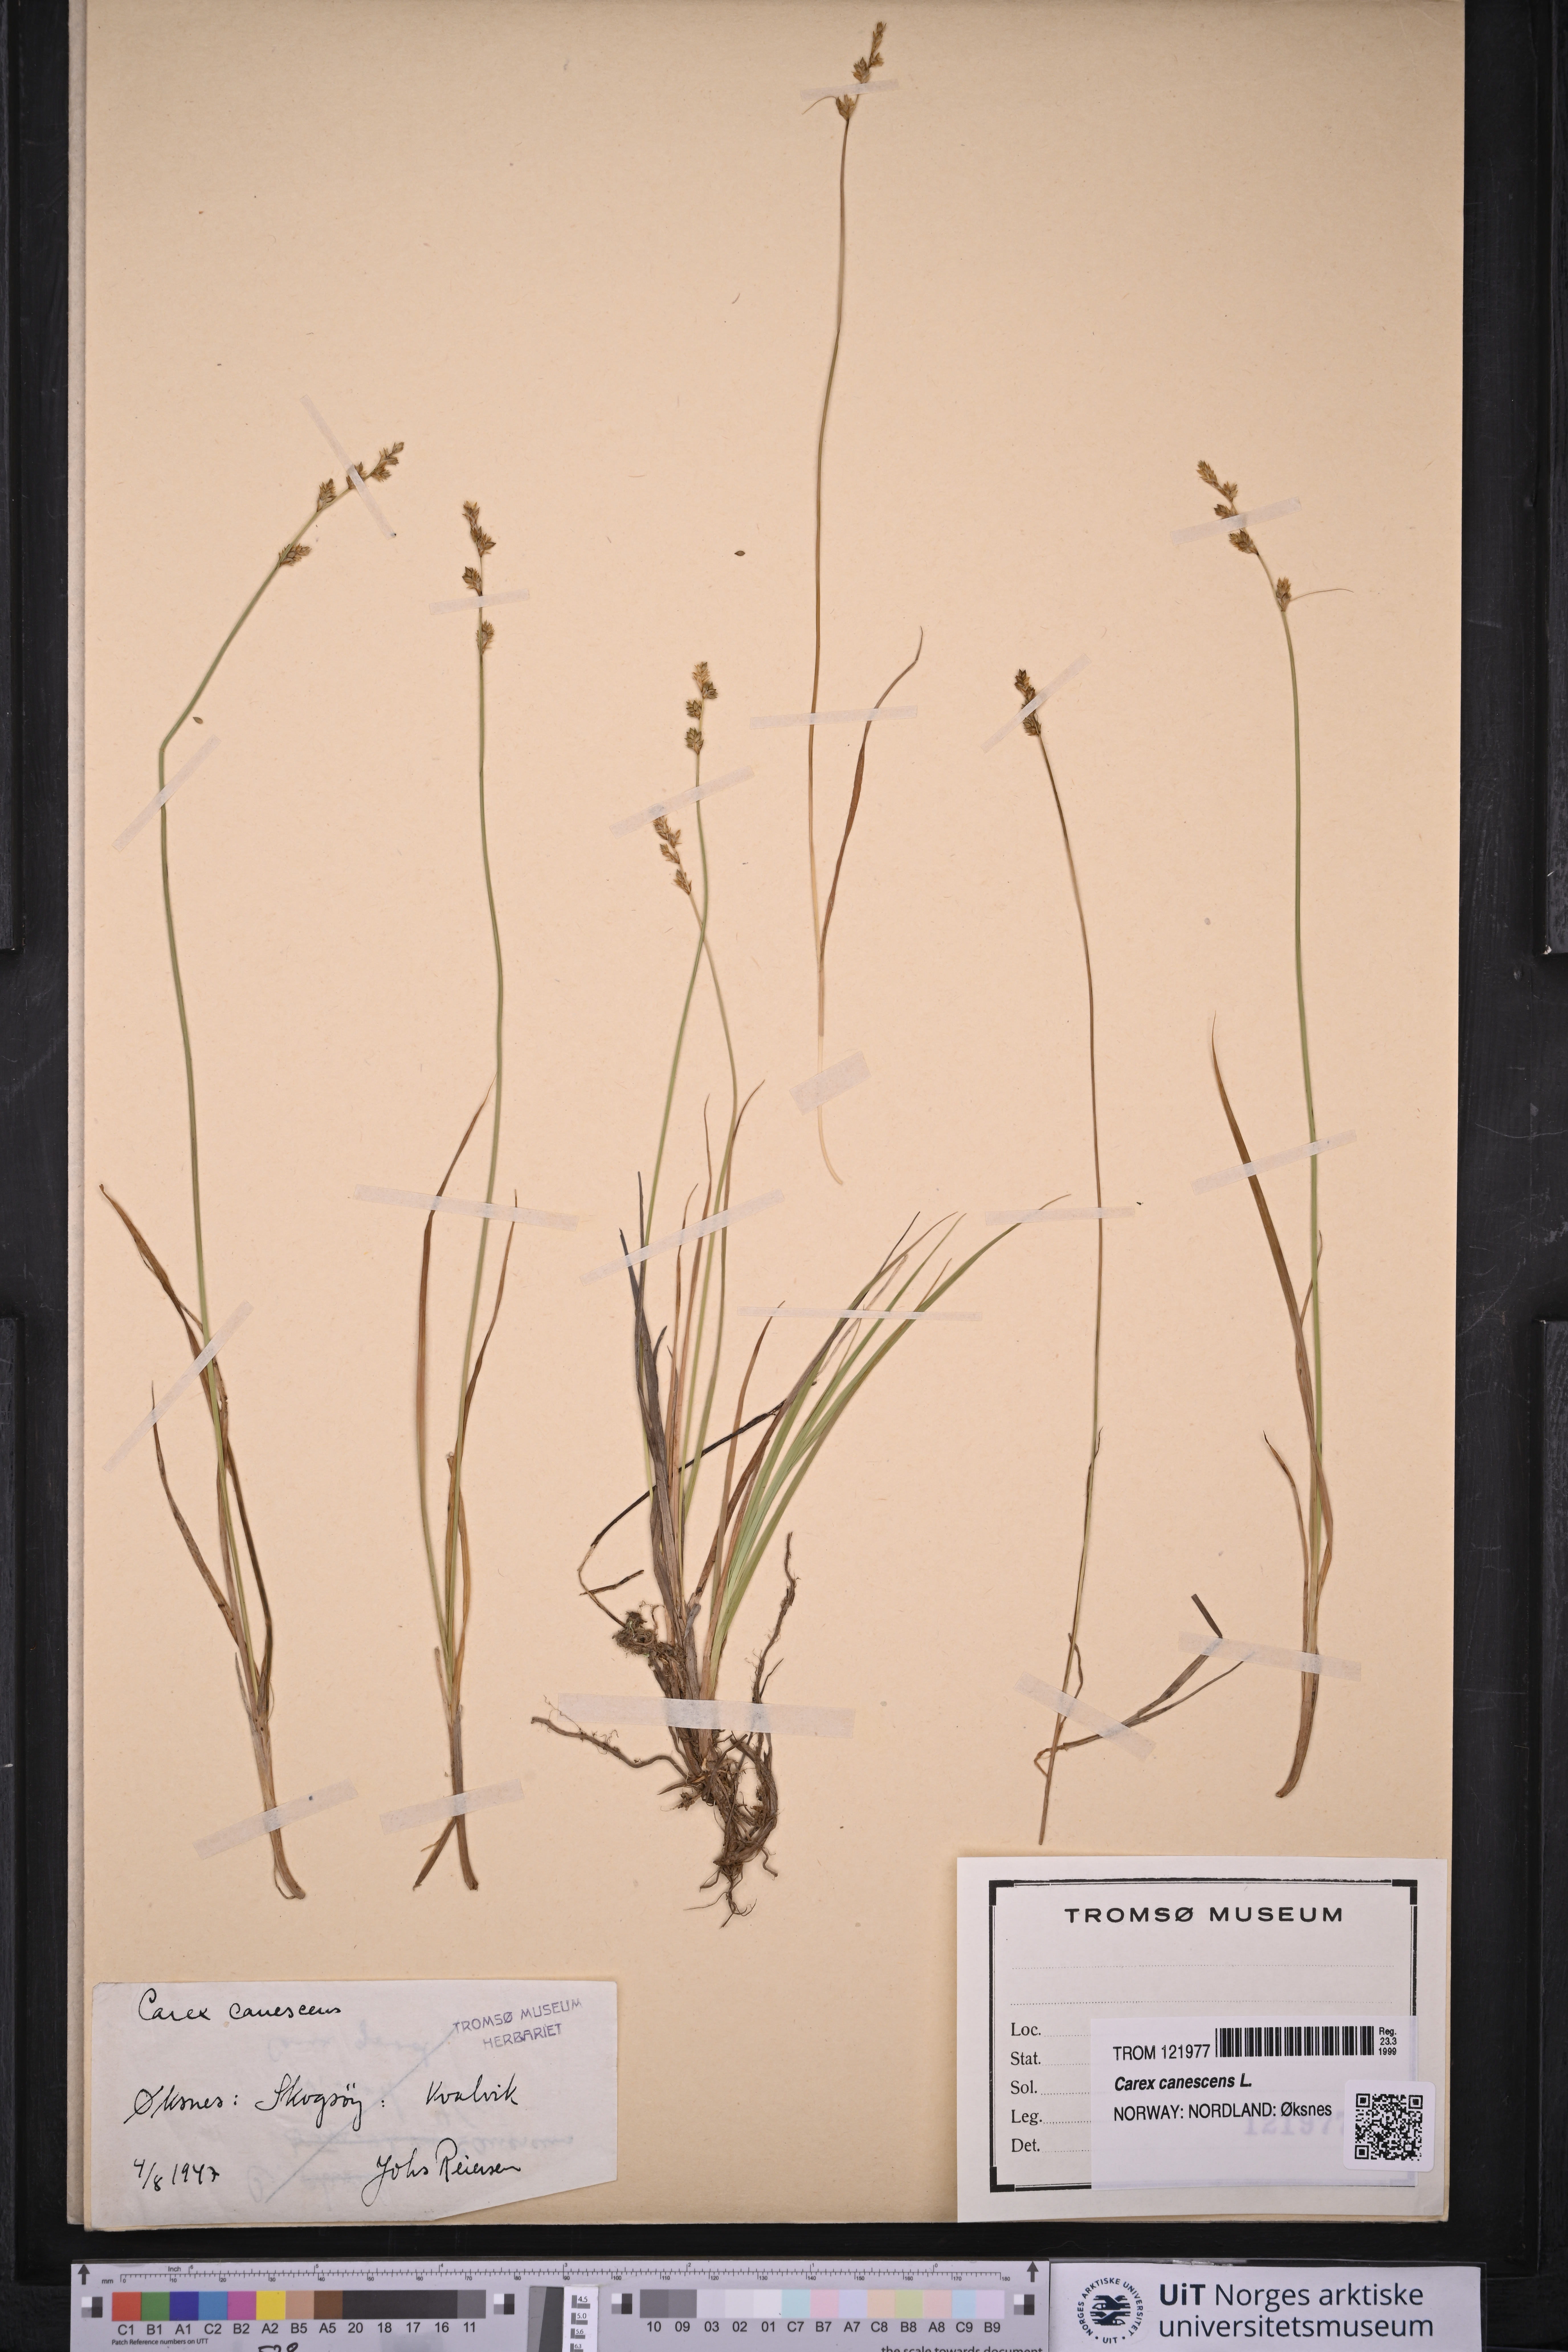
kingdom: Plantae
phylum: Tracheophyta
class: Liliopsida
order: Poales
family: Cyperaceae
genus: Carex
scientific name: Carex canescens
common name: White sedge
